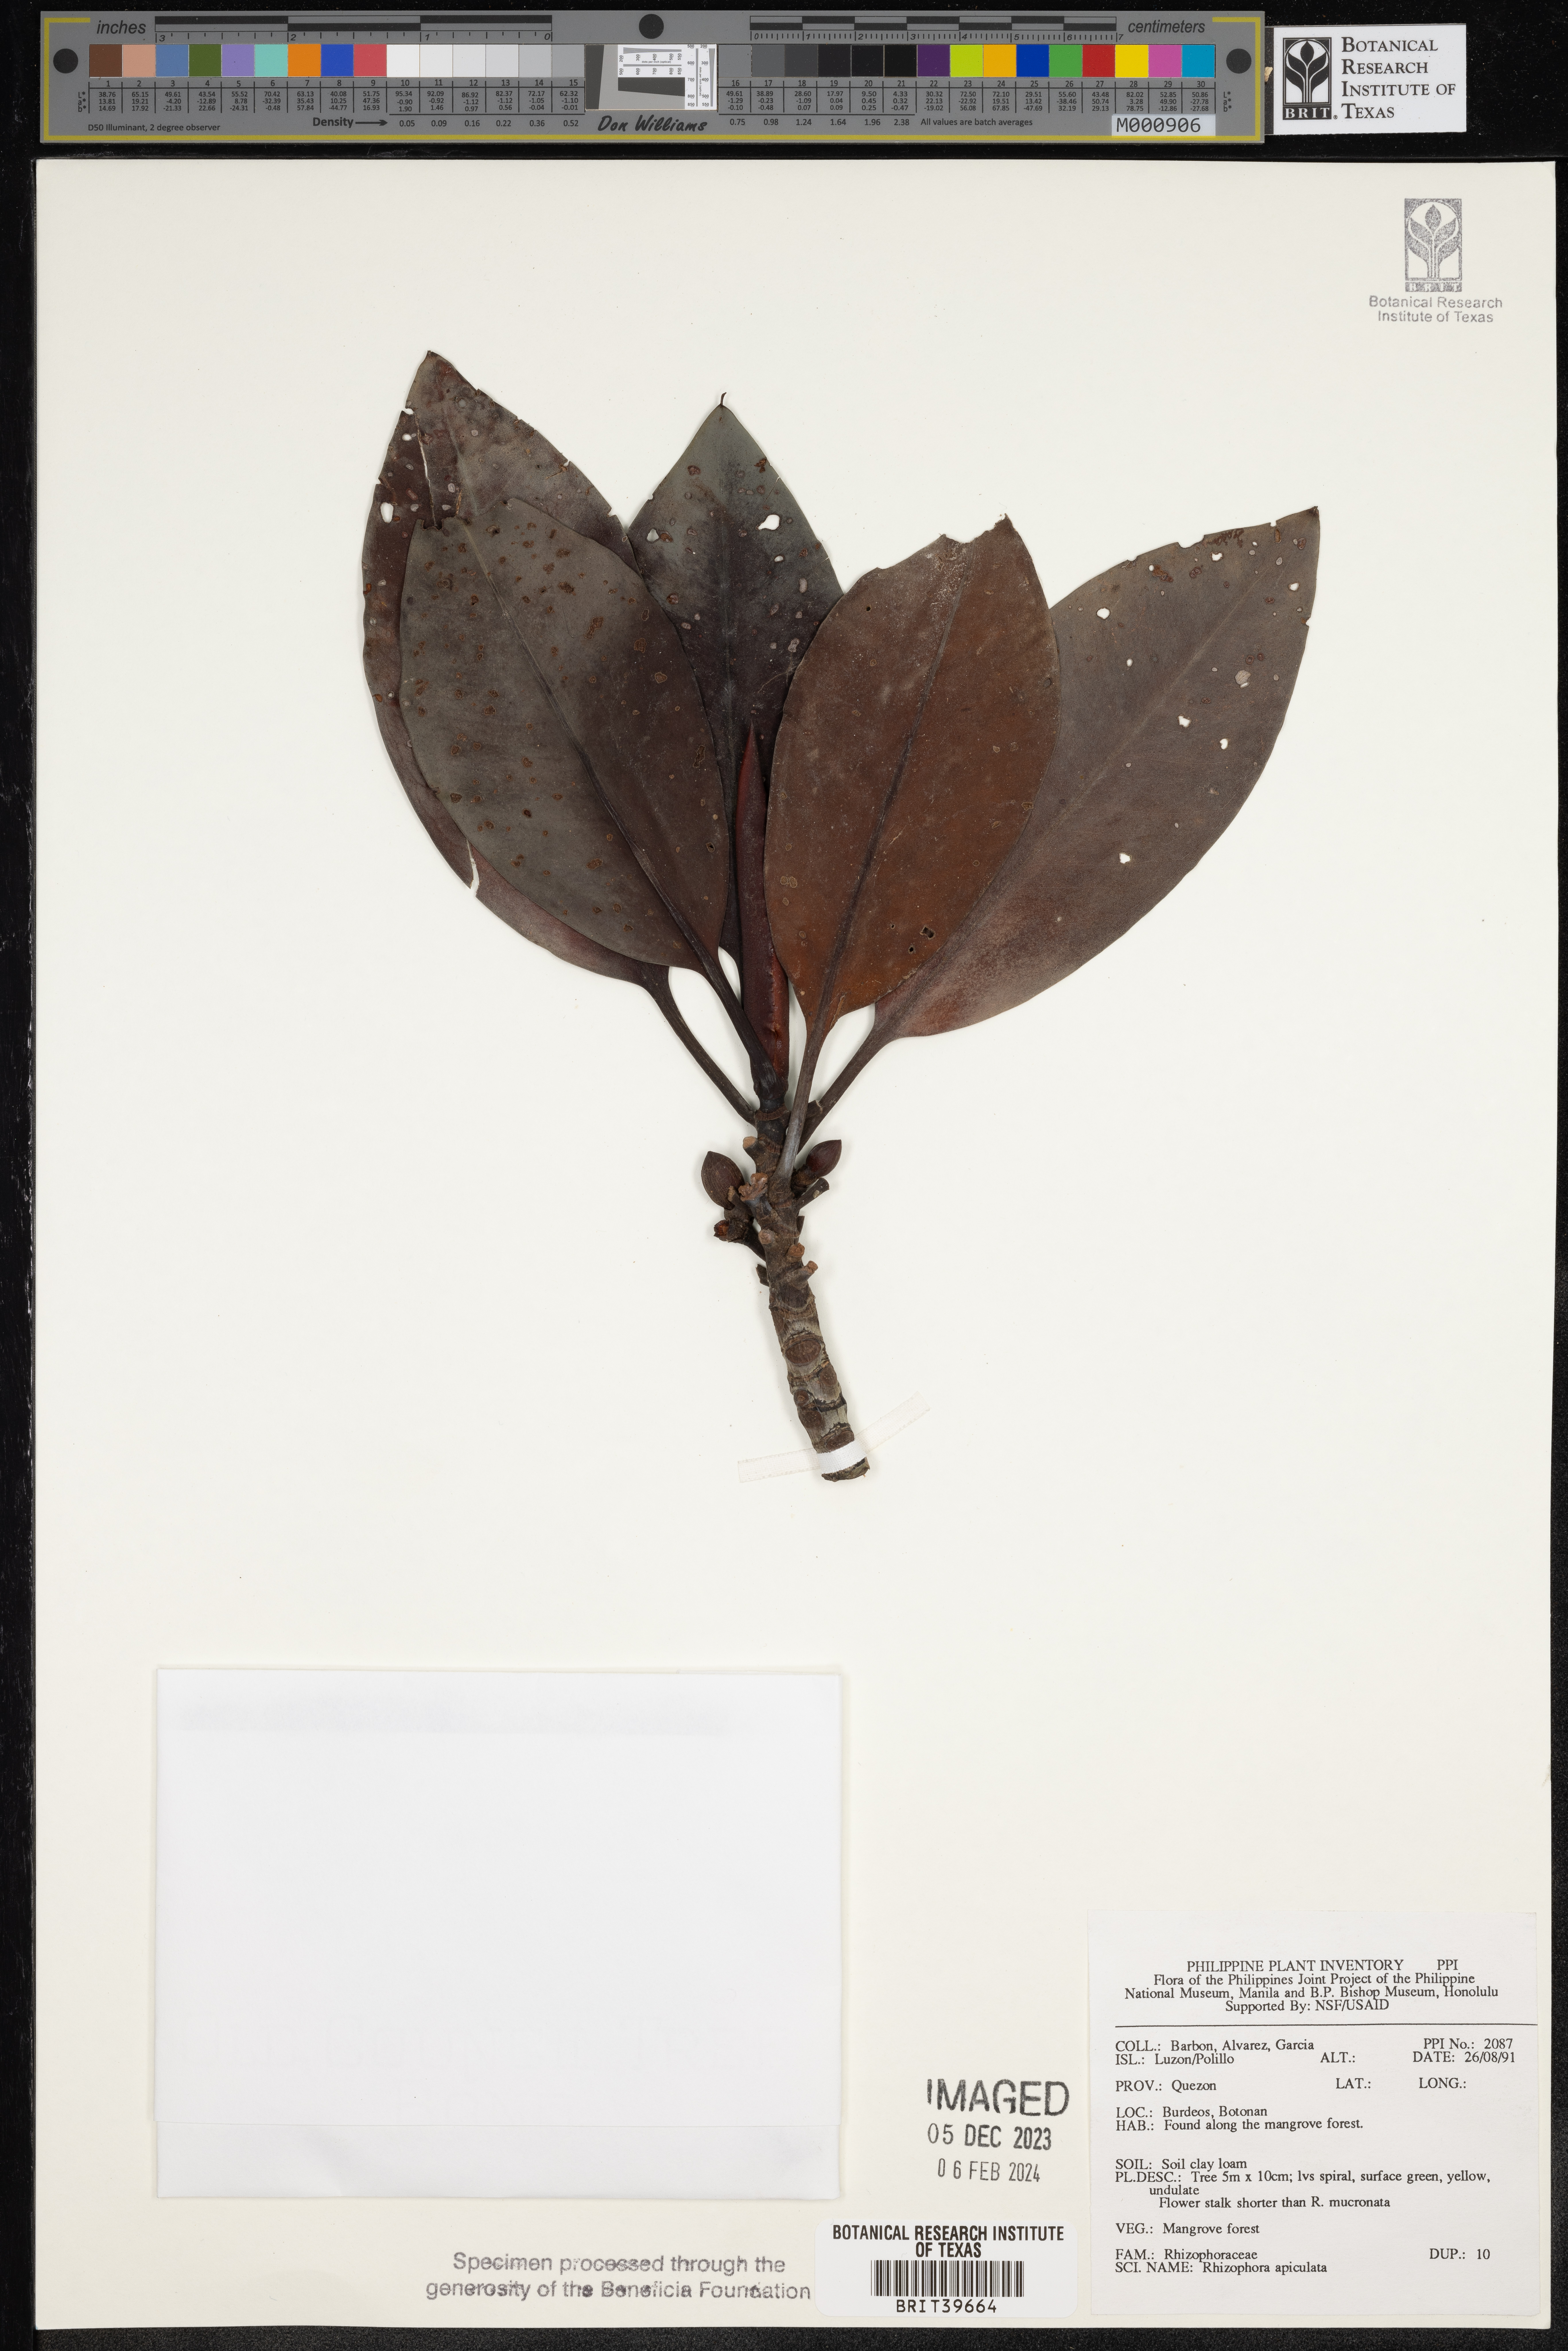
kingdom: Plantae
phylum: Tracheophyta
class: Magnoliopsida
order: Malpighiales
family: Rhizophoraceae
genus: Rhizophora
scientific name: Rhizophora apiculata
